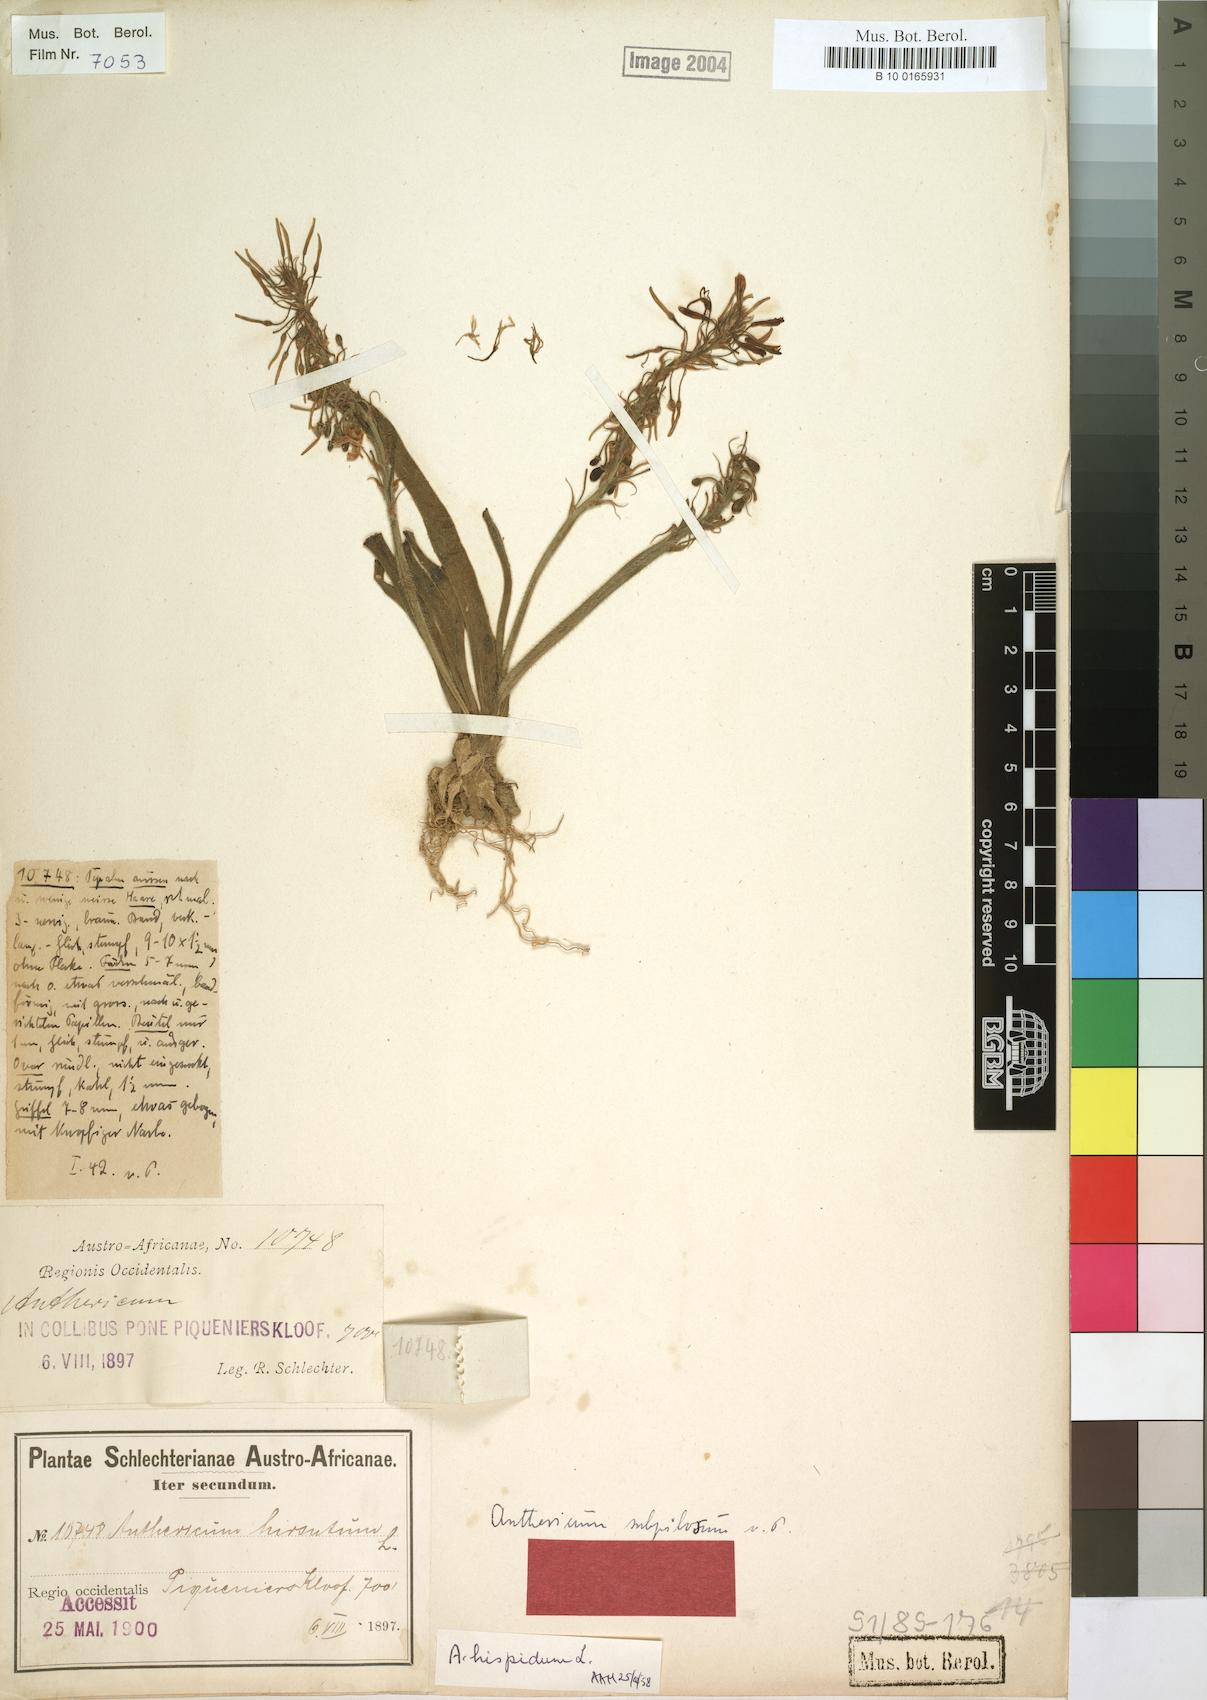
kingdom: Plantae
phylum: Tracheophyta
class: Liliopsida
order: Asparagales
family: Asphodelaceae
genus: Trachyandra
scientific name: Trachyandra hispida
